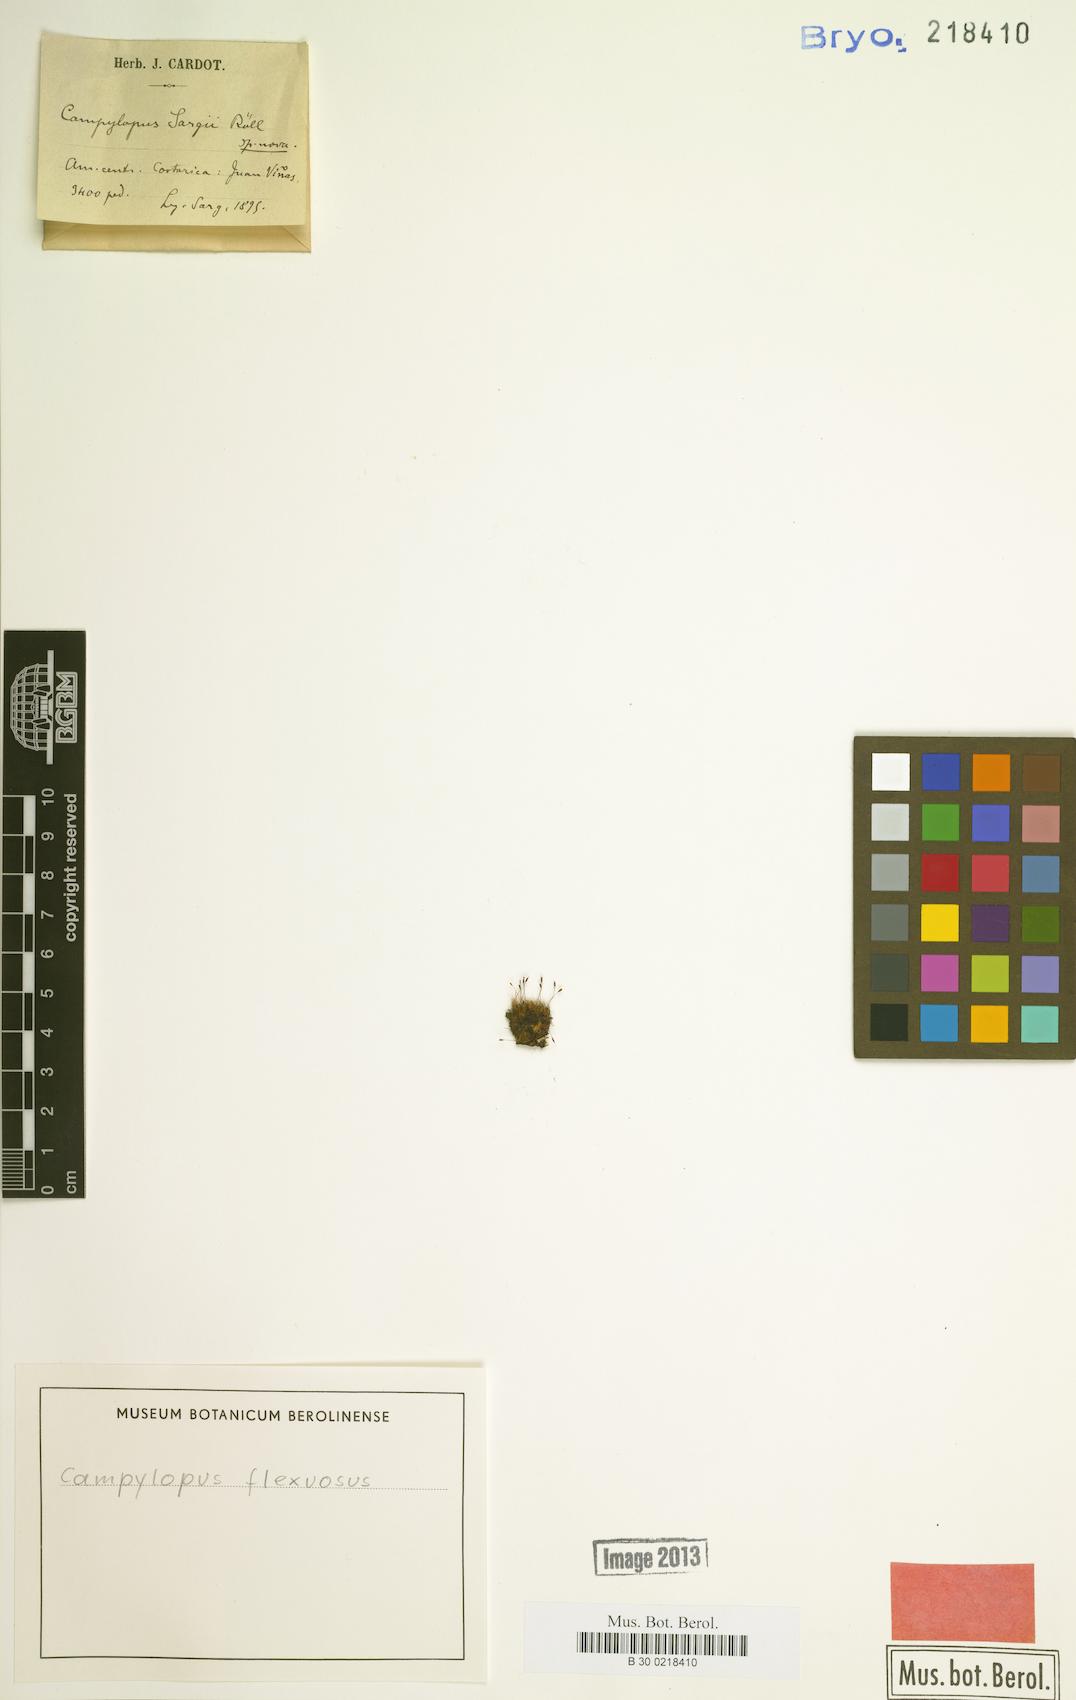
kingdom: Plantae
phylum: Bryophyta
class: Bryopsida
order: Dicranales
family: Leucobryaceae
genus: Campylopus
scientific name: Campylopus flexuosus
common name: Rusty swan-neck moss
